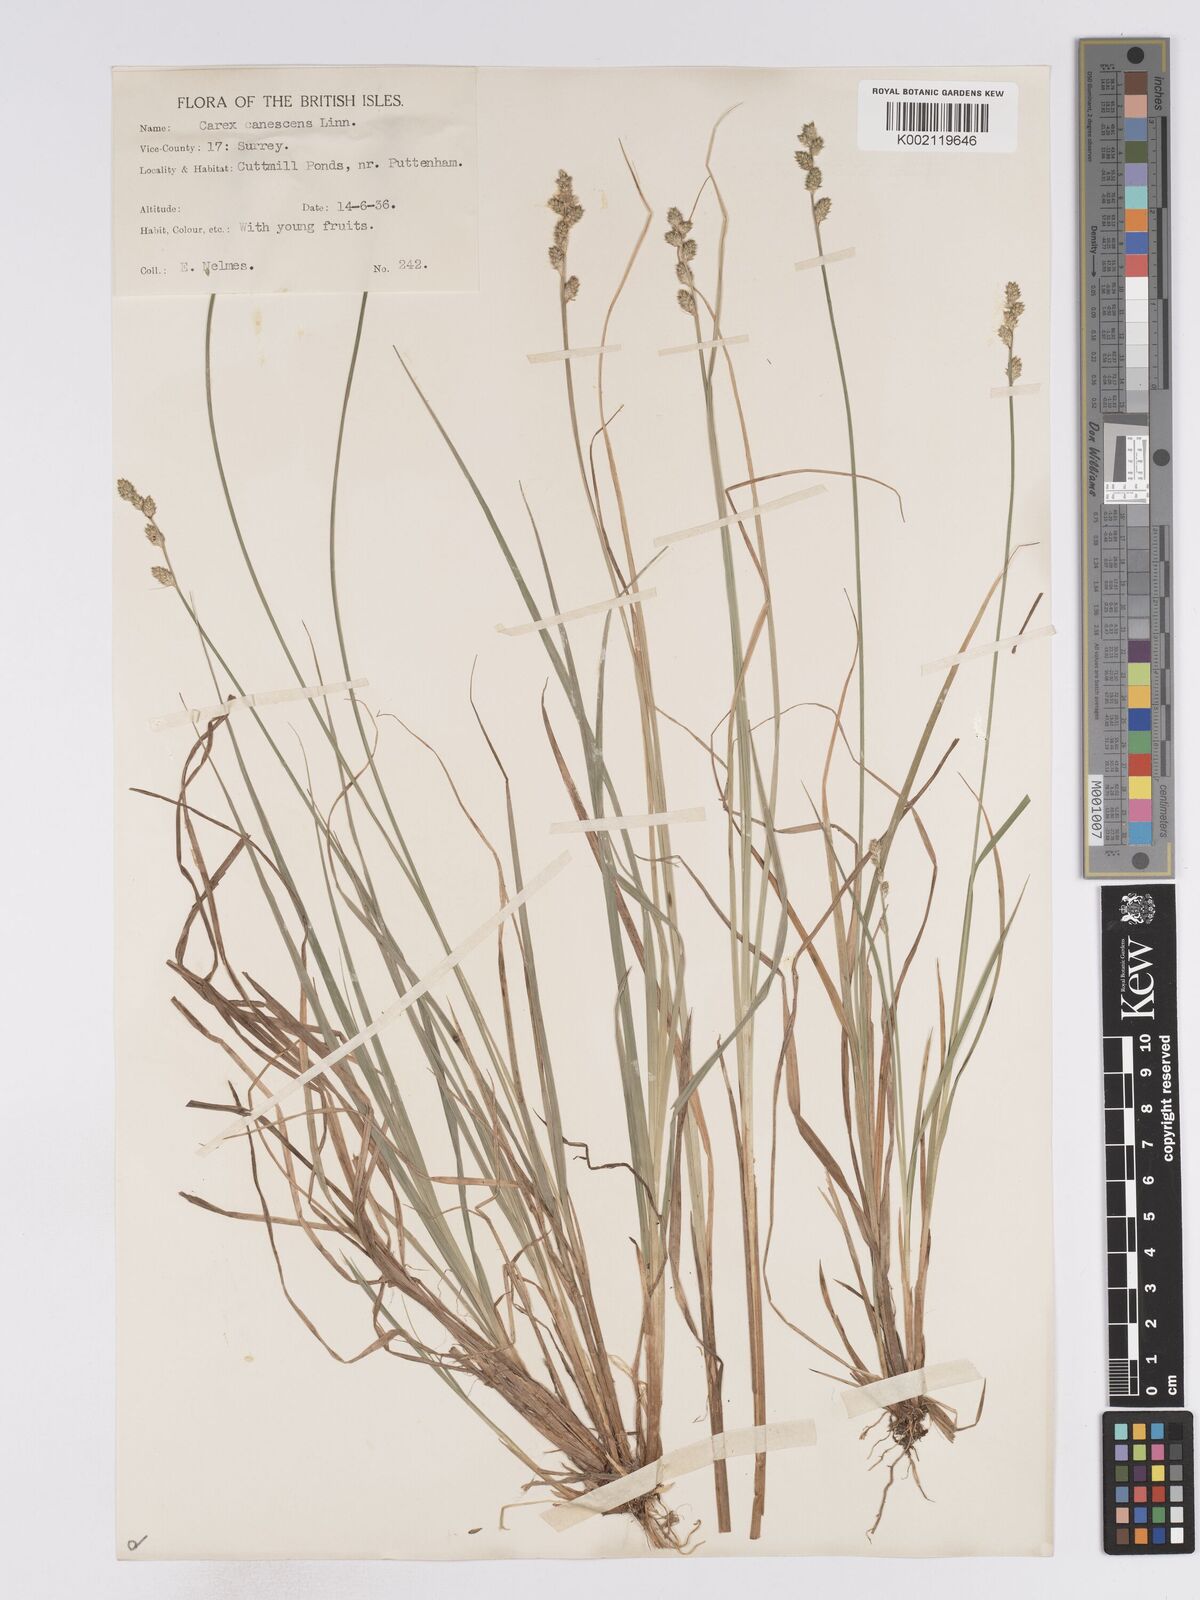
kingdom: Plantae
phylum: Tracheophyta
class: Liliopsida
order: Poales
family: Cyperaceae
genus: Carex
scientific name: Carex curta
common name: White sedge
